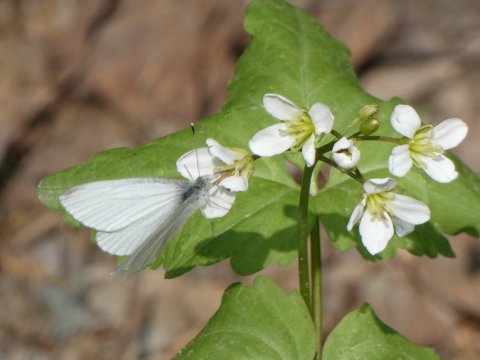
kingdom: Animalia
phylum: Arthropoda
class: Insecta
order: Lepidoptera
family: Pieridae
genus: Pieris
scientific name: Pieris virginiensis
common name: West Virginia White
